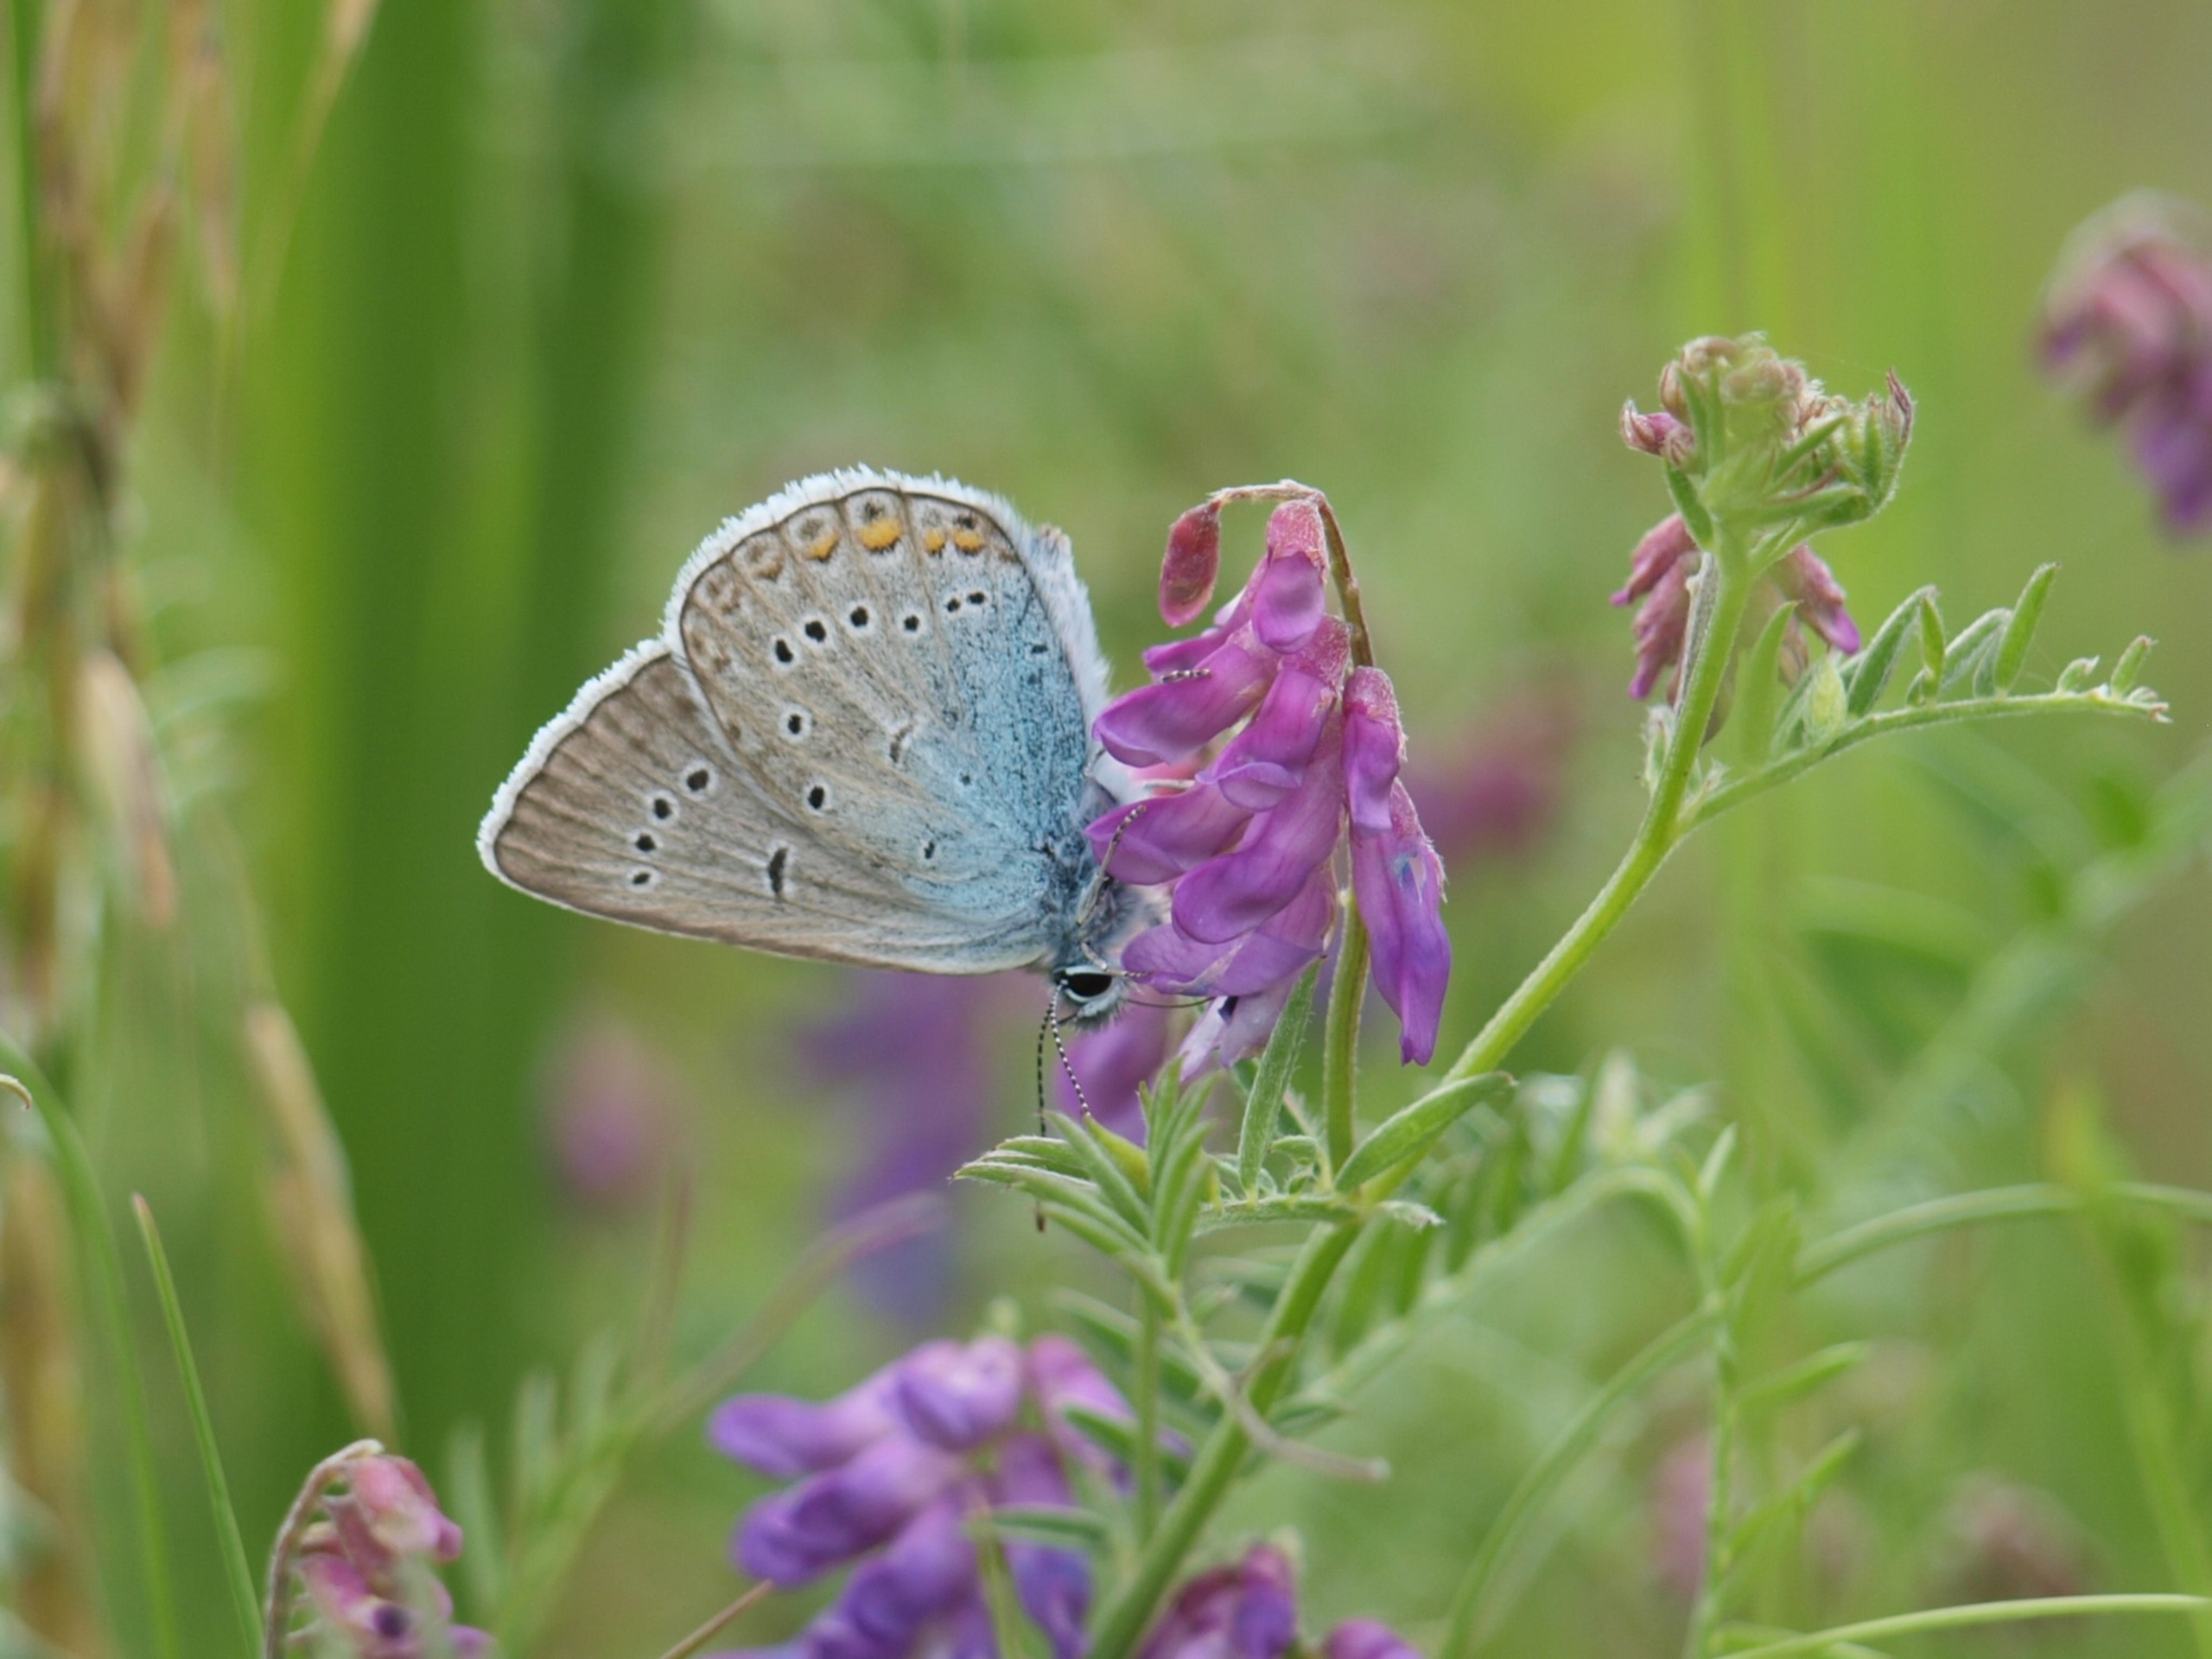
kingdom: Animalia
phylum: Arthropoda
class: Insecta
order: Lepidoptera
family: Lycaenidae
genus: Plebejus
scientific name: Plebejus amanda
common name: Isblåfugl
